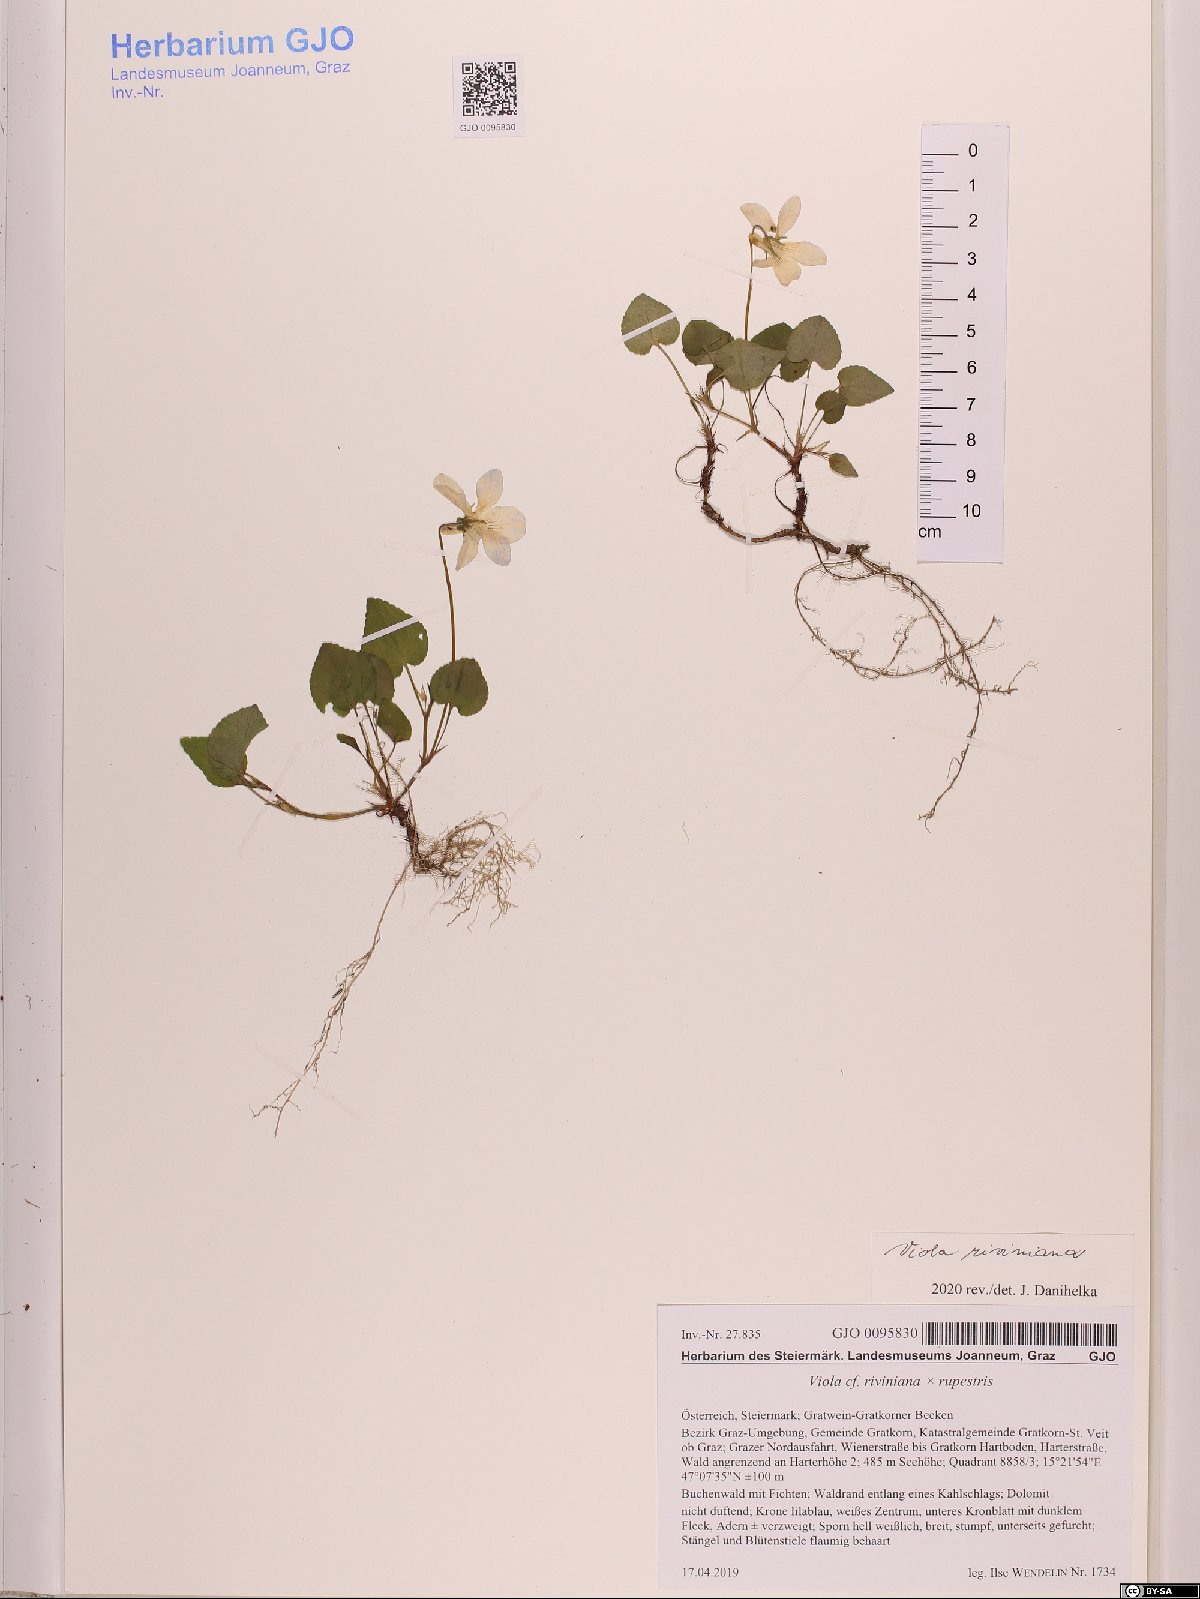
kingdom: Plantae
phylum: Tracheophyta
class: Magnoliopsida
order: Malpighiales
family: Violaceae
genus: Viola
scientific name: Viola riviniana
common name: Common dog-violet
